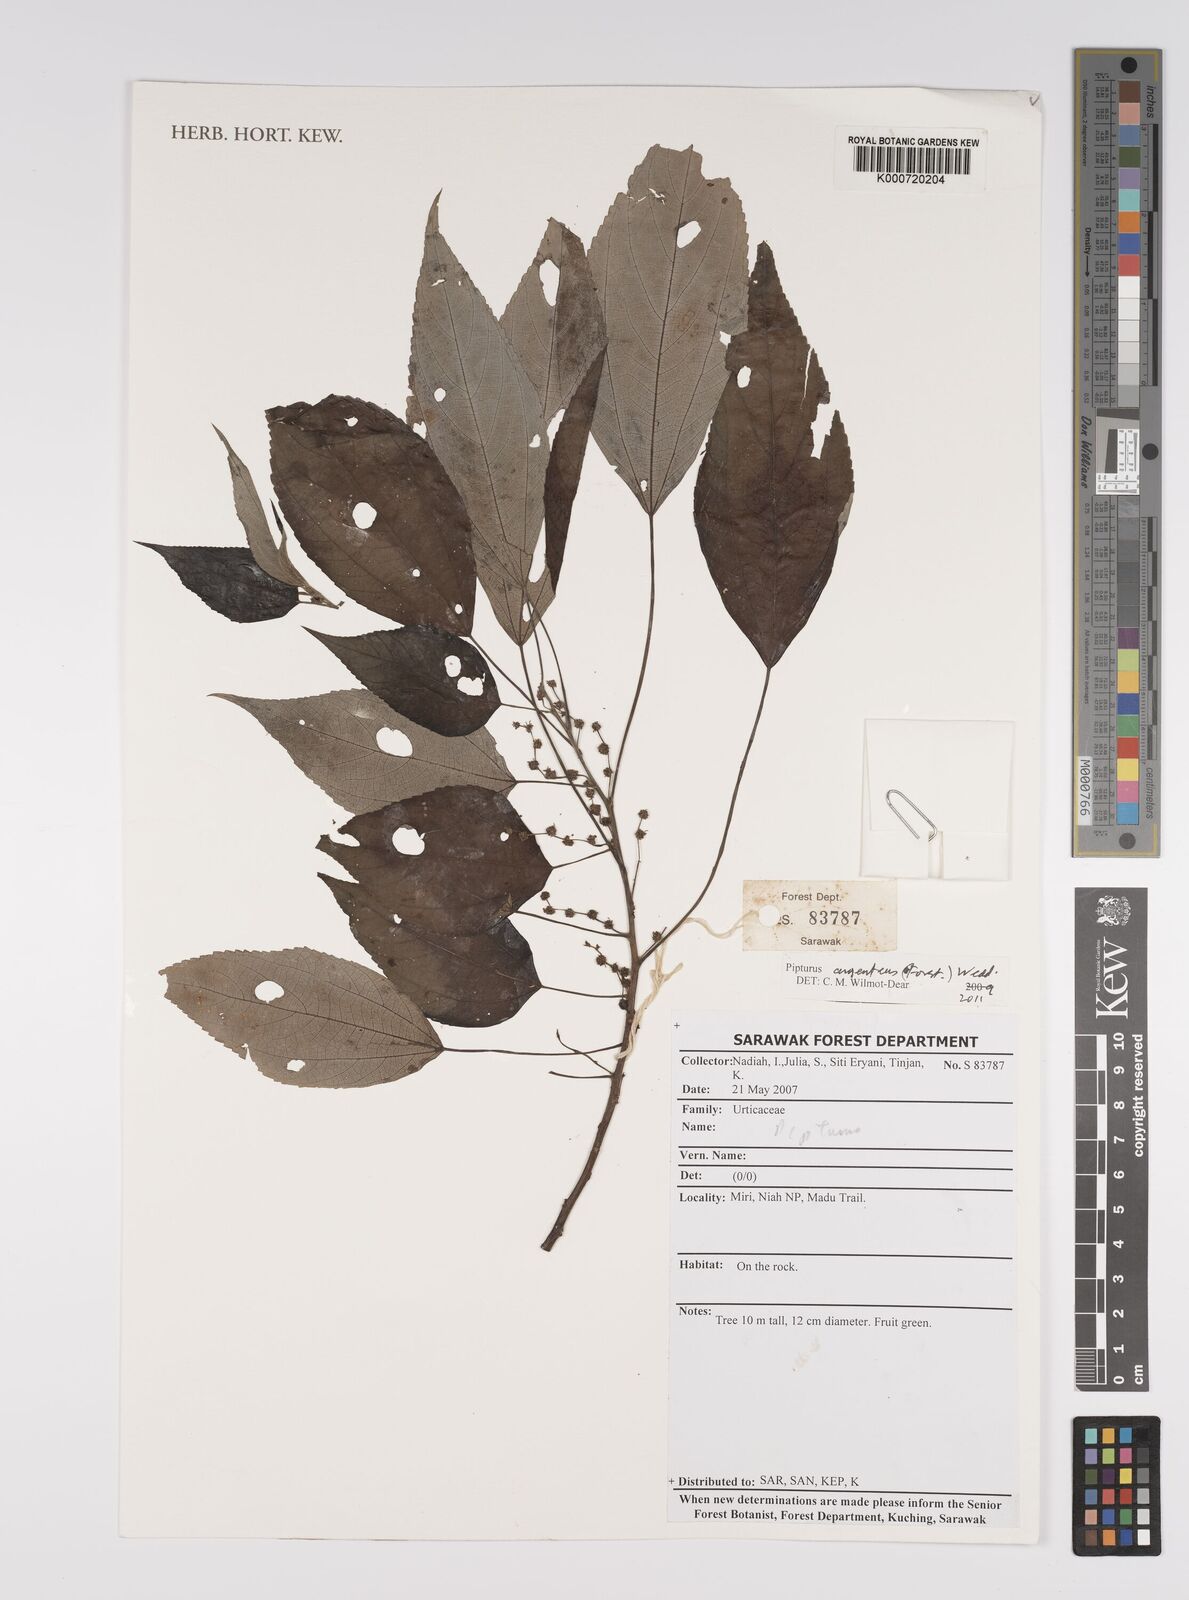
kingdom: Plantae
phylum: Tracheophyta
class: Magnoliopsida
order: Rosales
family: Urticaceae
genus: Pipturus
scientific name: Pipturus argenteus
